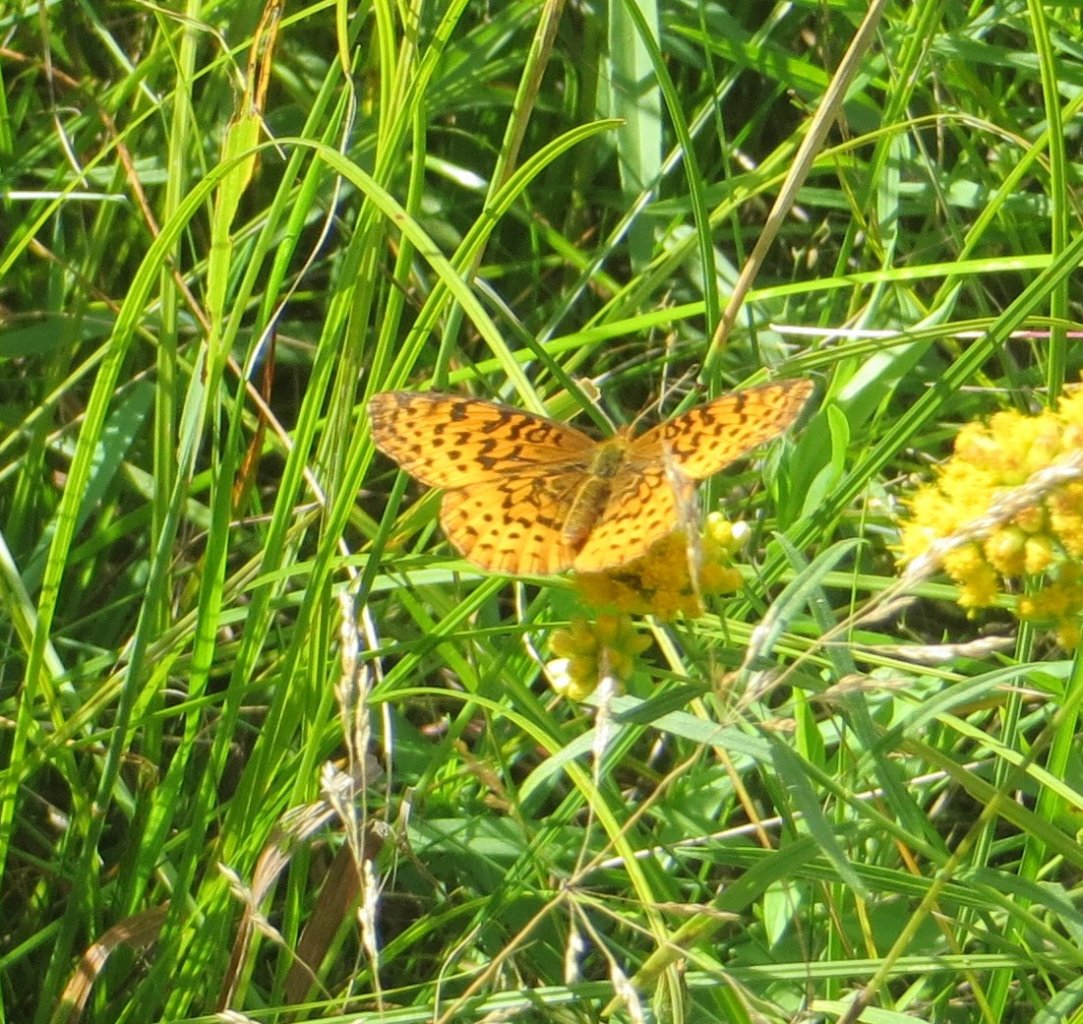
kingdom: Animalia
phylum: Arthropoda
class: Insecta
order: Lepidoptera
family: Nymphalidae
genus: Clossiana
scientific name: Clossiana toddi
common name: Meadow Fritillary
